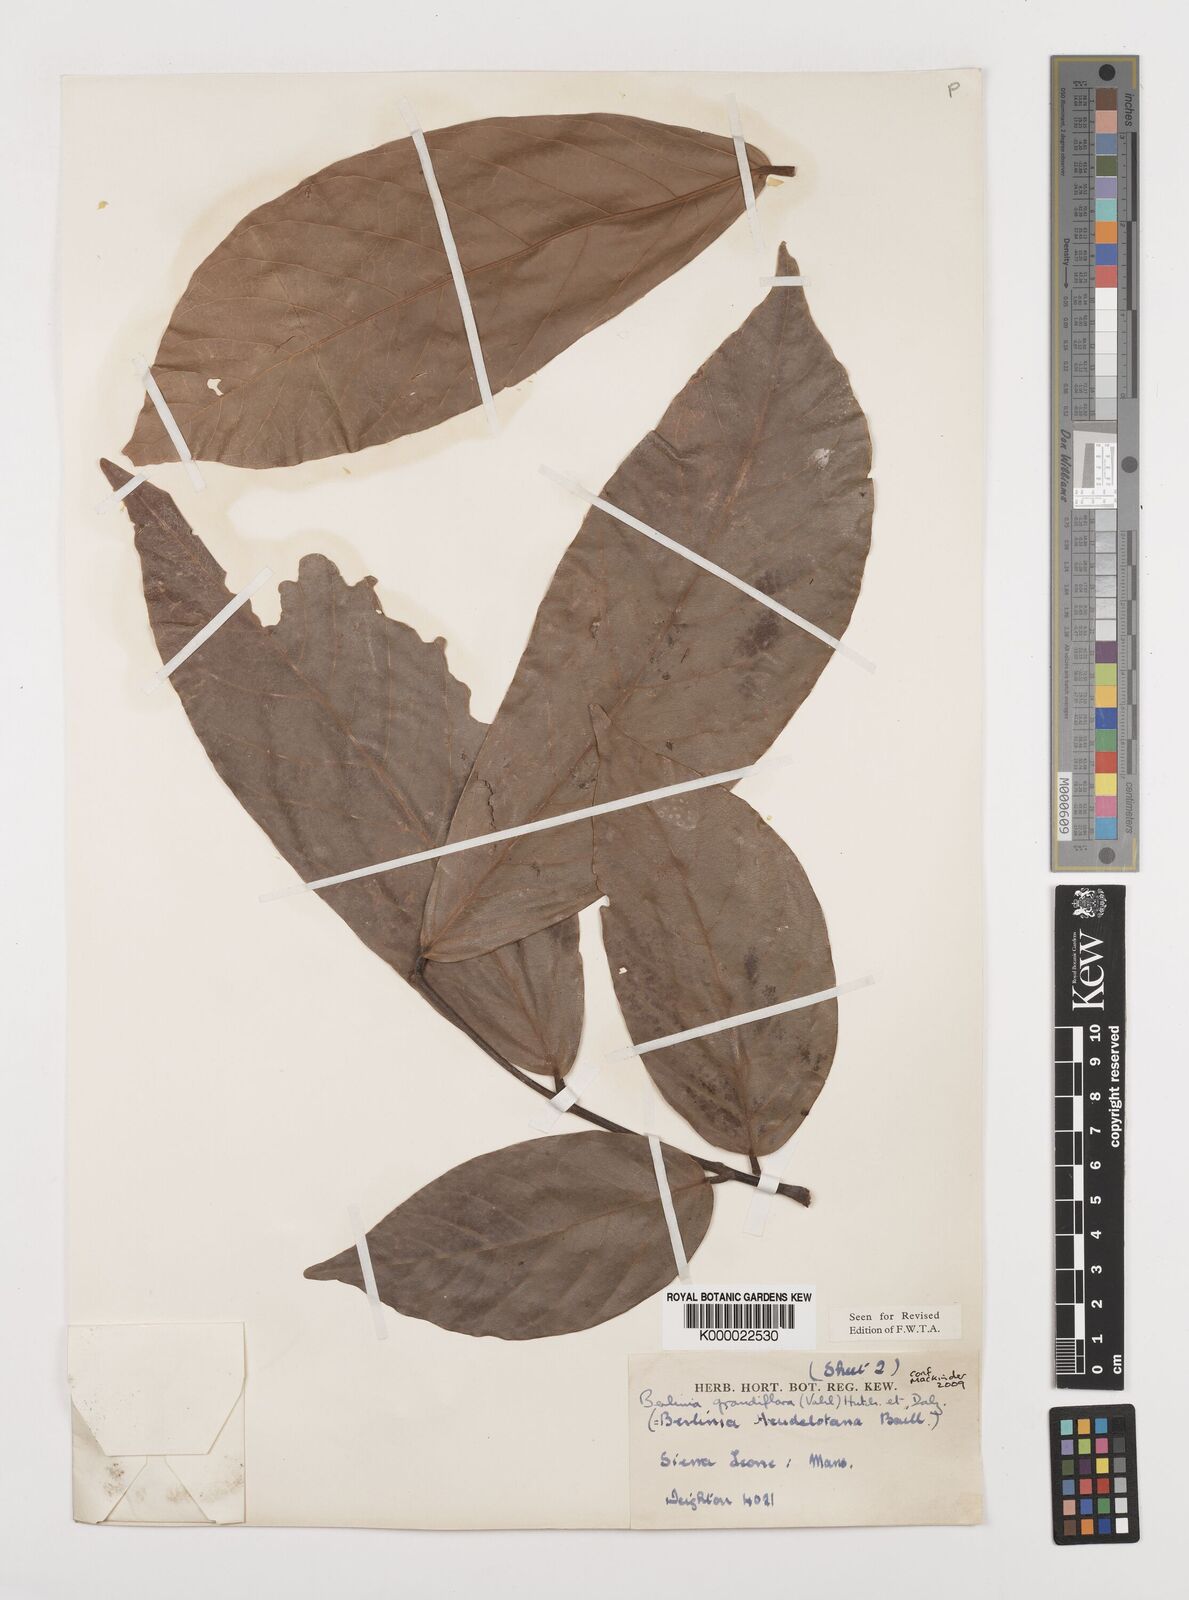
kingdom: Plantae
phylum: Tracheophyta
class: Magnoliopsida
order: Fabales
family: Fabaceae
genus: Berlinia
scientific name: Berlinia grandiflora
